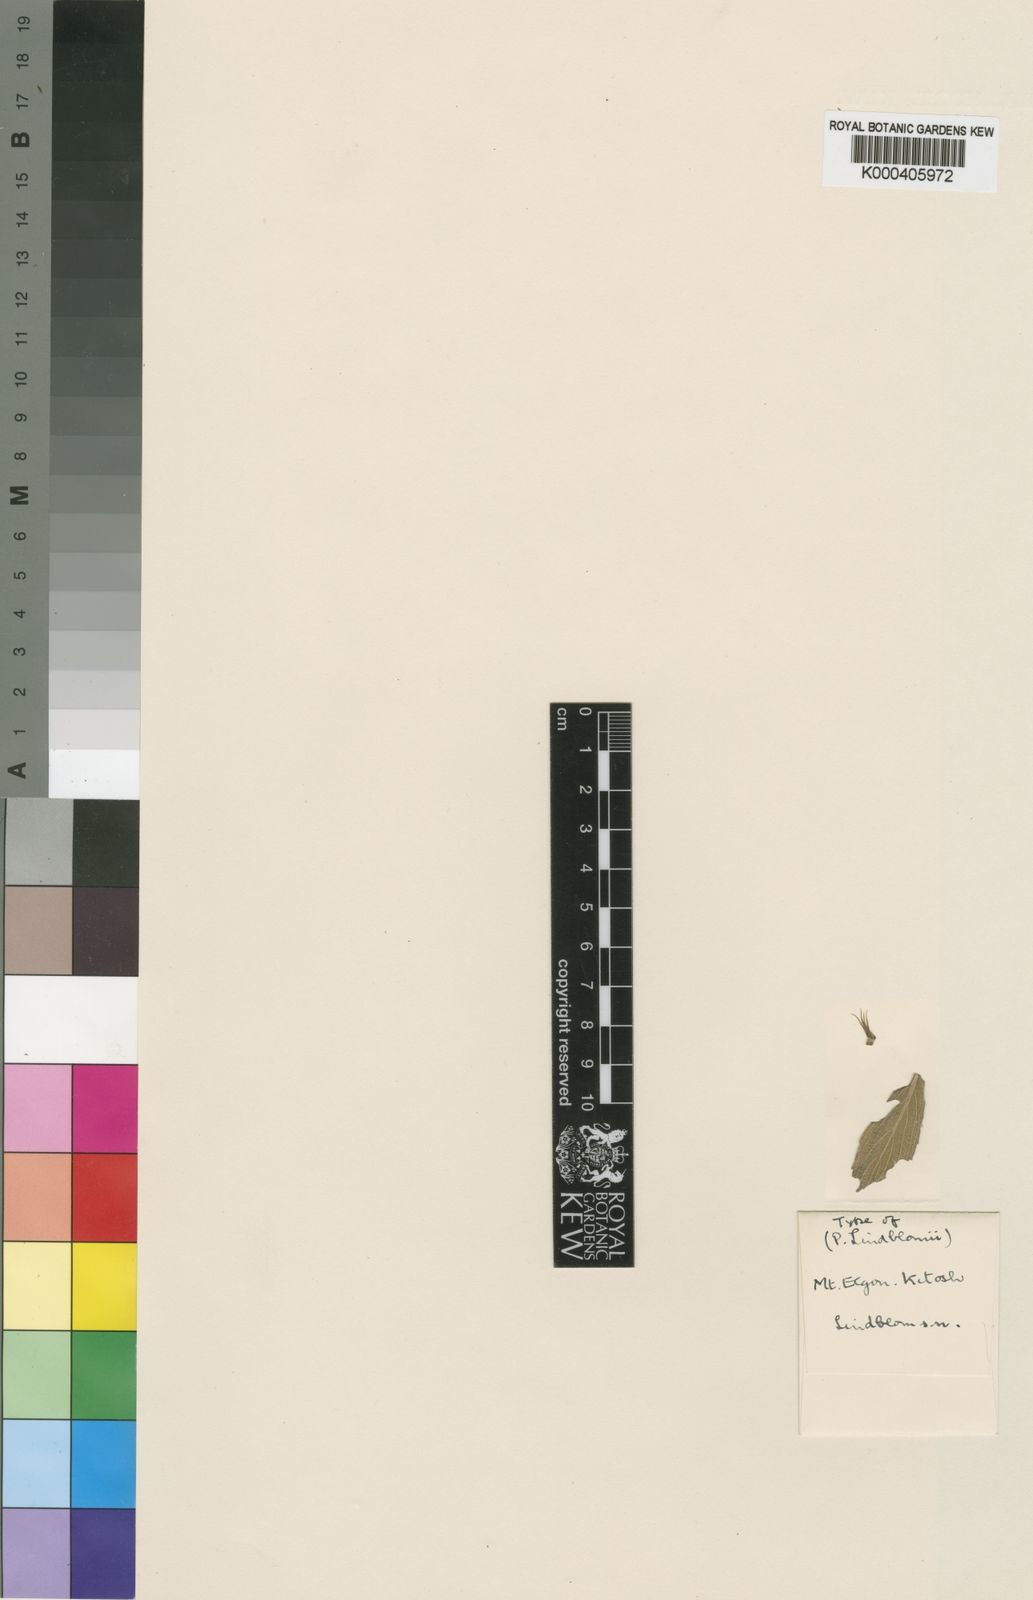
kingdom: Plantae
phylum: Tracheophyta
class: Magnoliopsida
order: Lamiales
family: Lamiaceae
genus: Coleus
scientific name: Coleus
